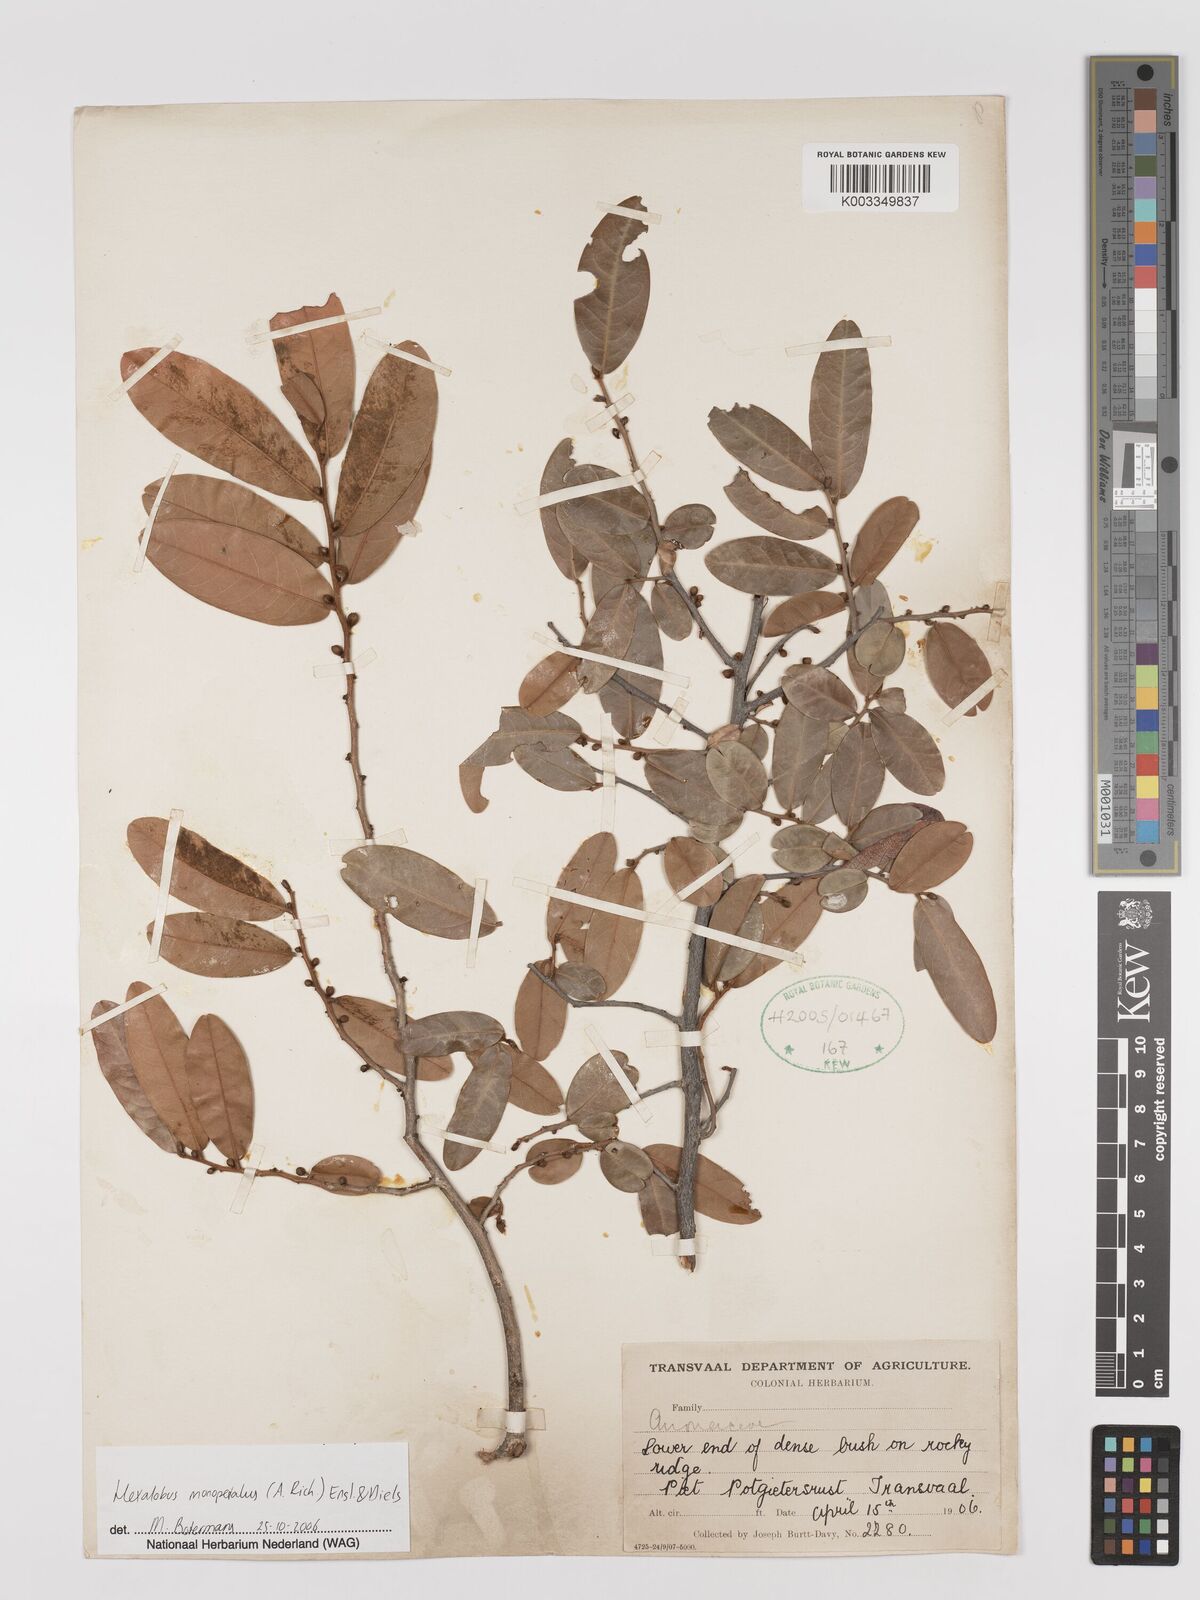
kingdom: Plantae
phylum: Tracheophyta
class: Magnoliopsida
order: Magnoliales
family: Annonaceae
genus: Hexalobus
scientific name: Hexalobus monopetalus
